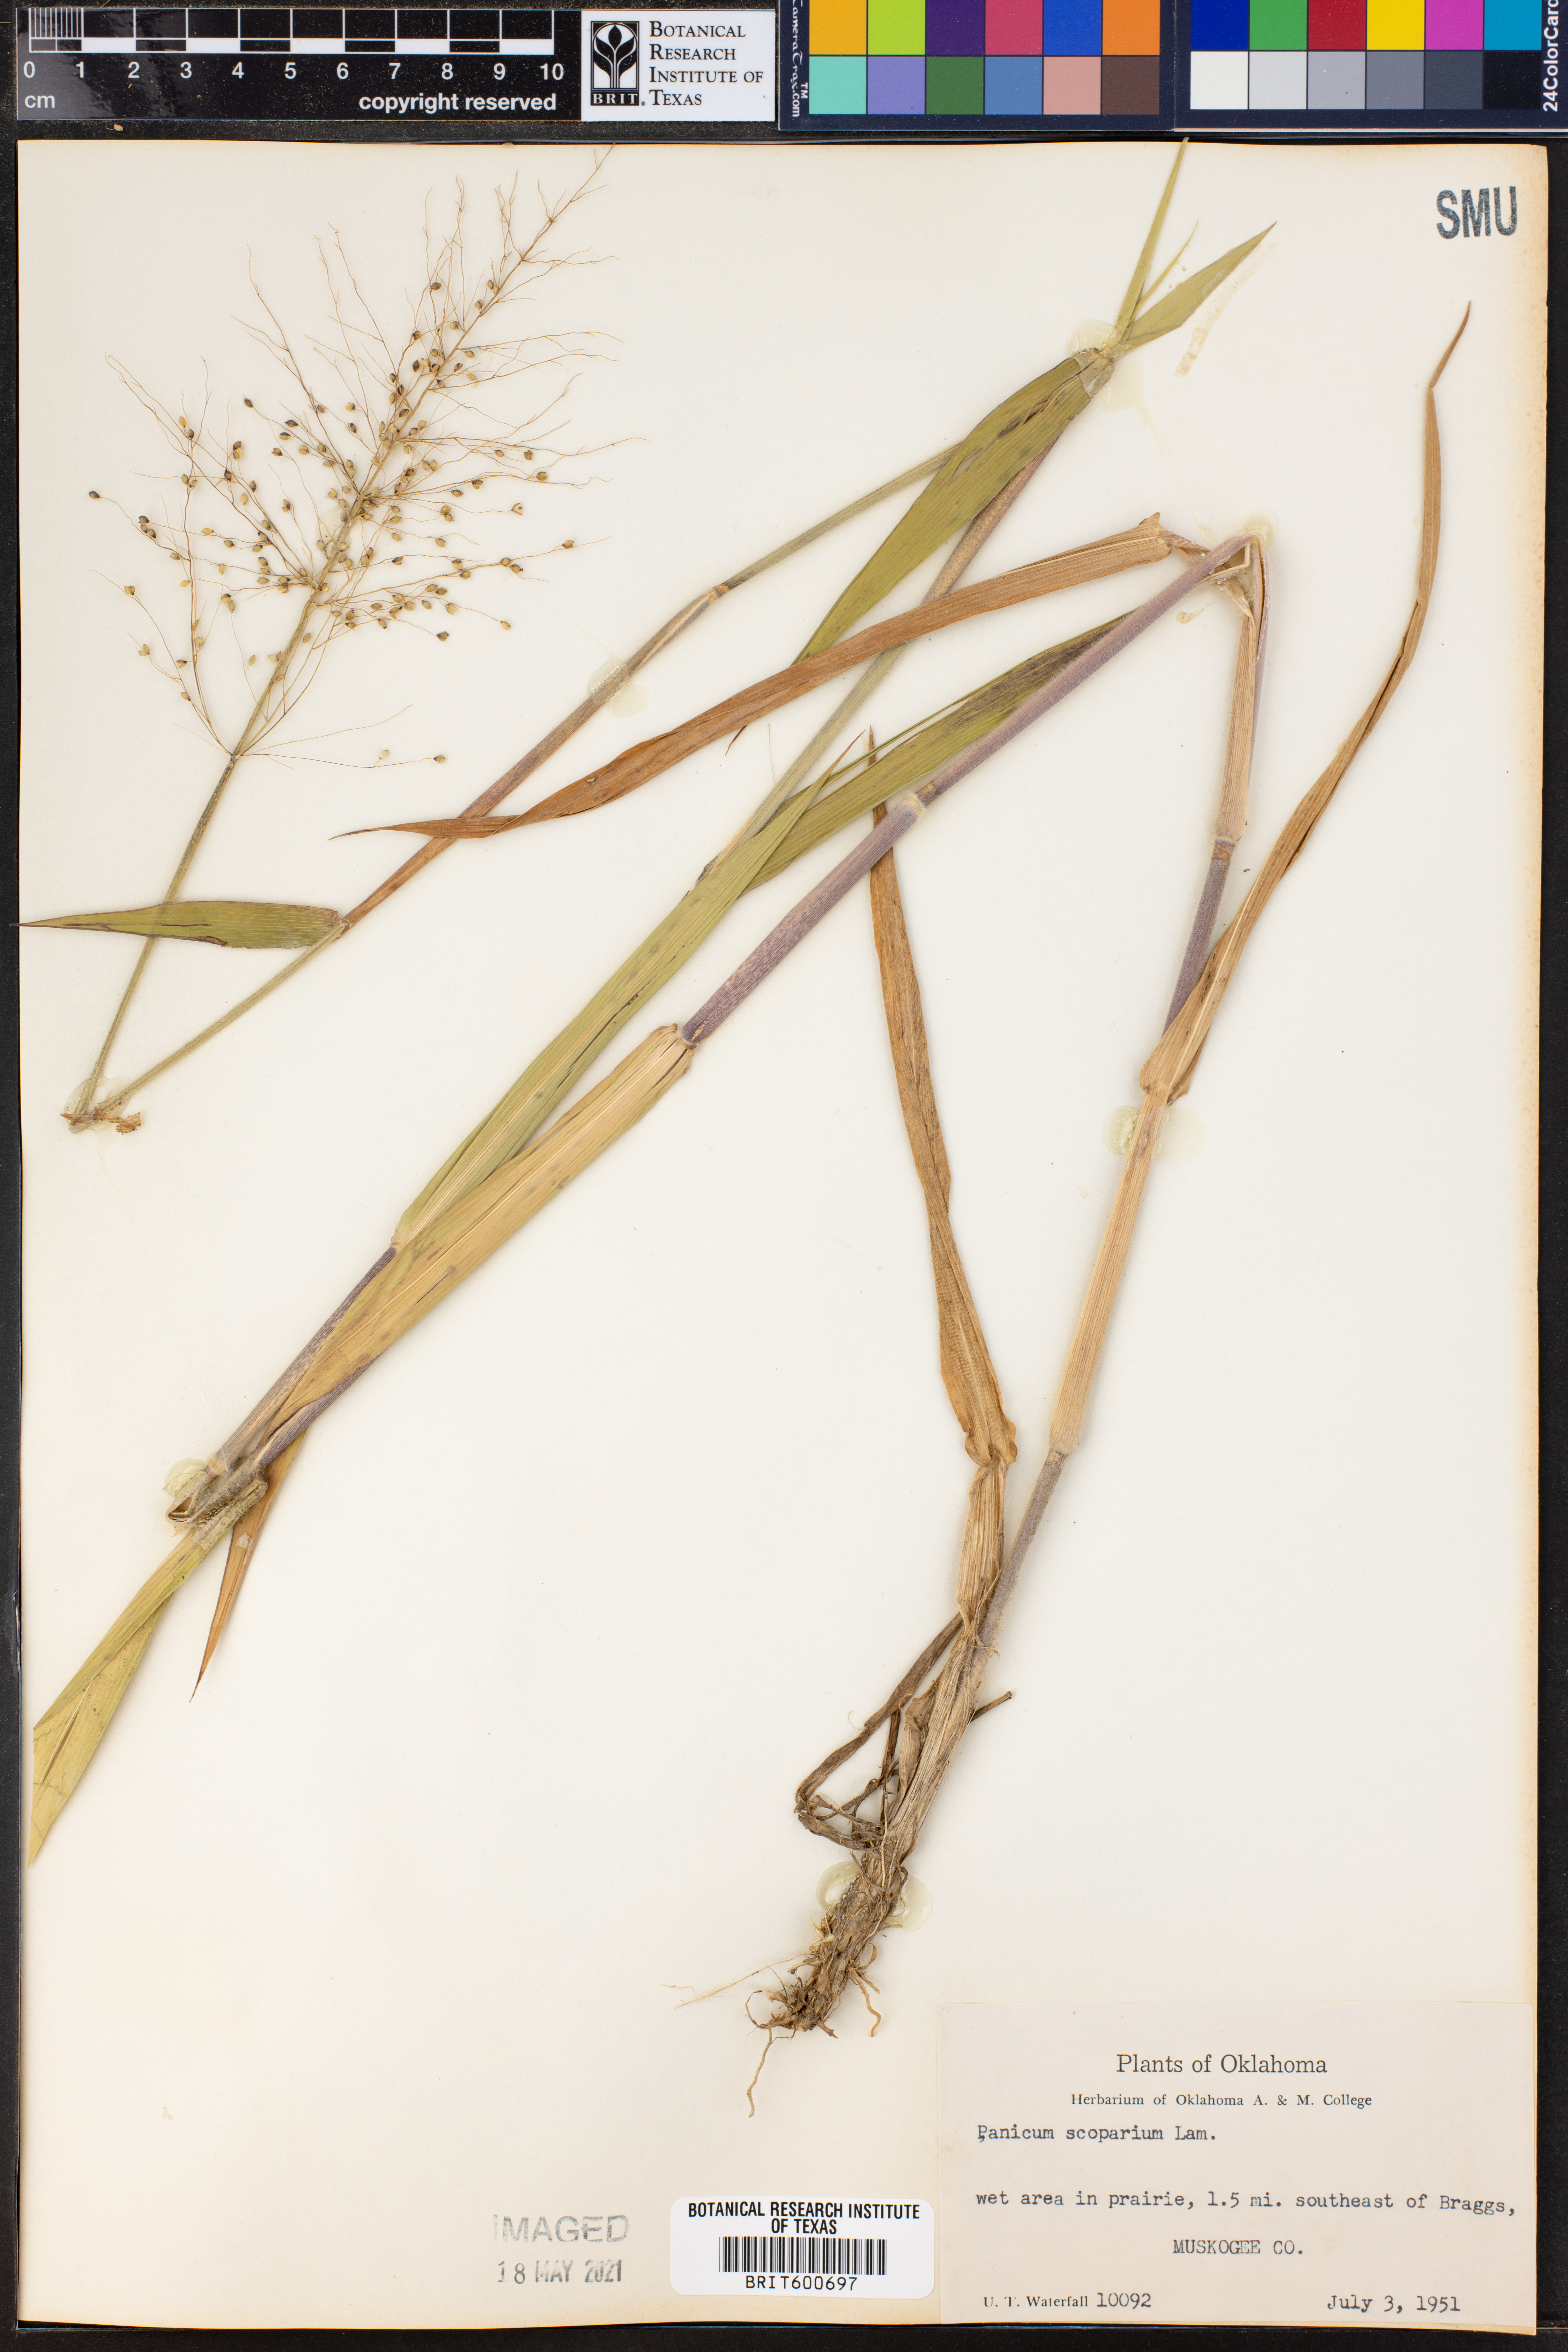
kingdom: Plantae
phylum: Tracheophyta
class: Liliopsida
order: Poales
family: Poaceae
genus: Dichanthelium
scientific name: Dichanthelium scribnerianum
